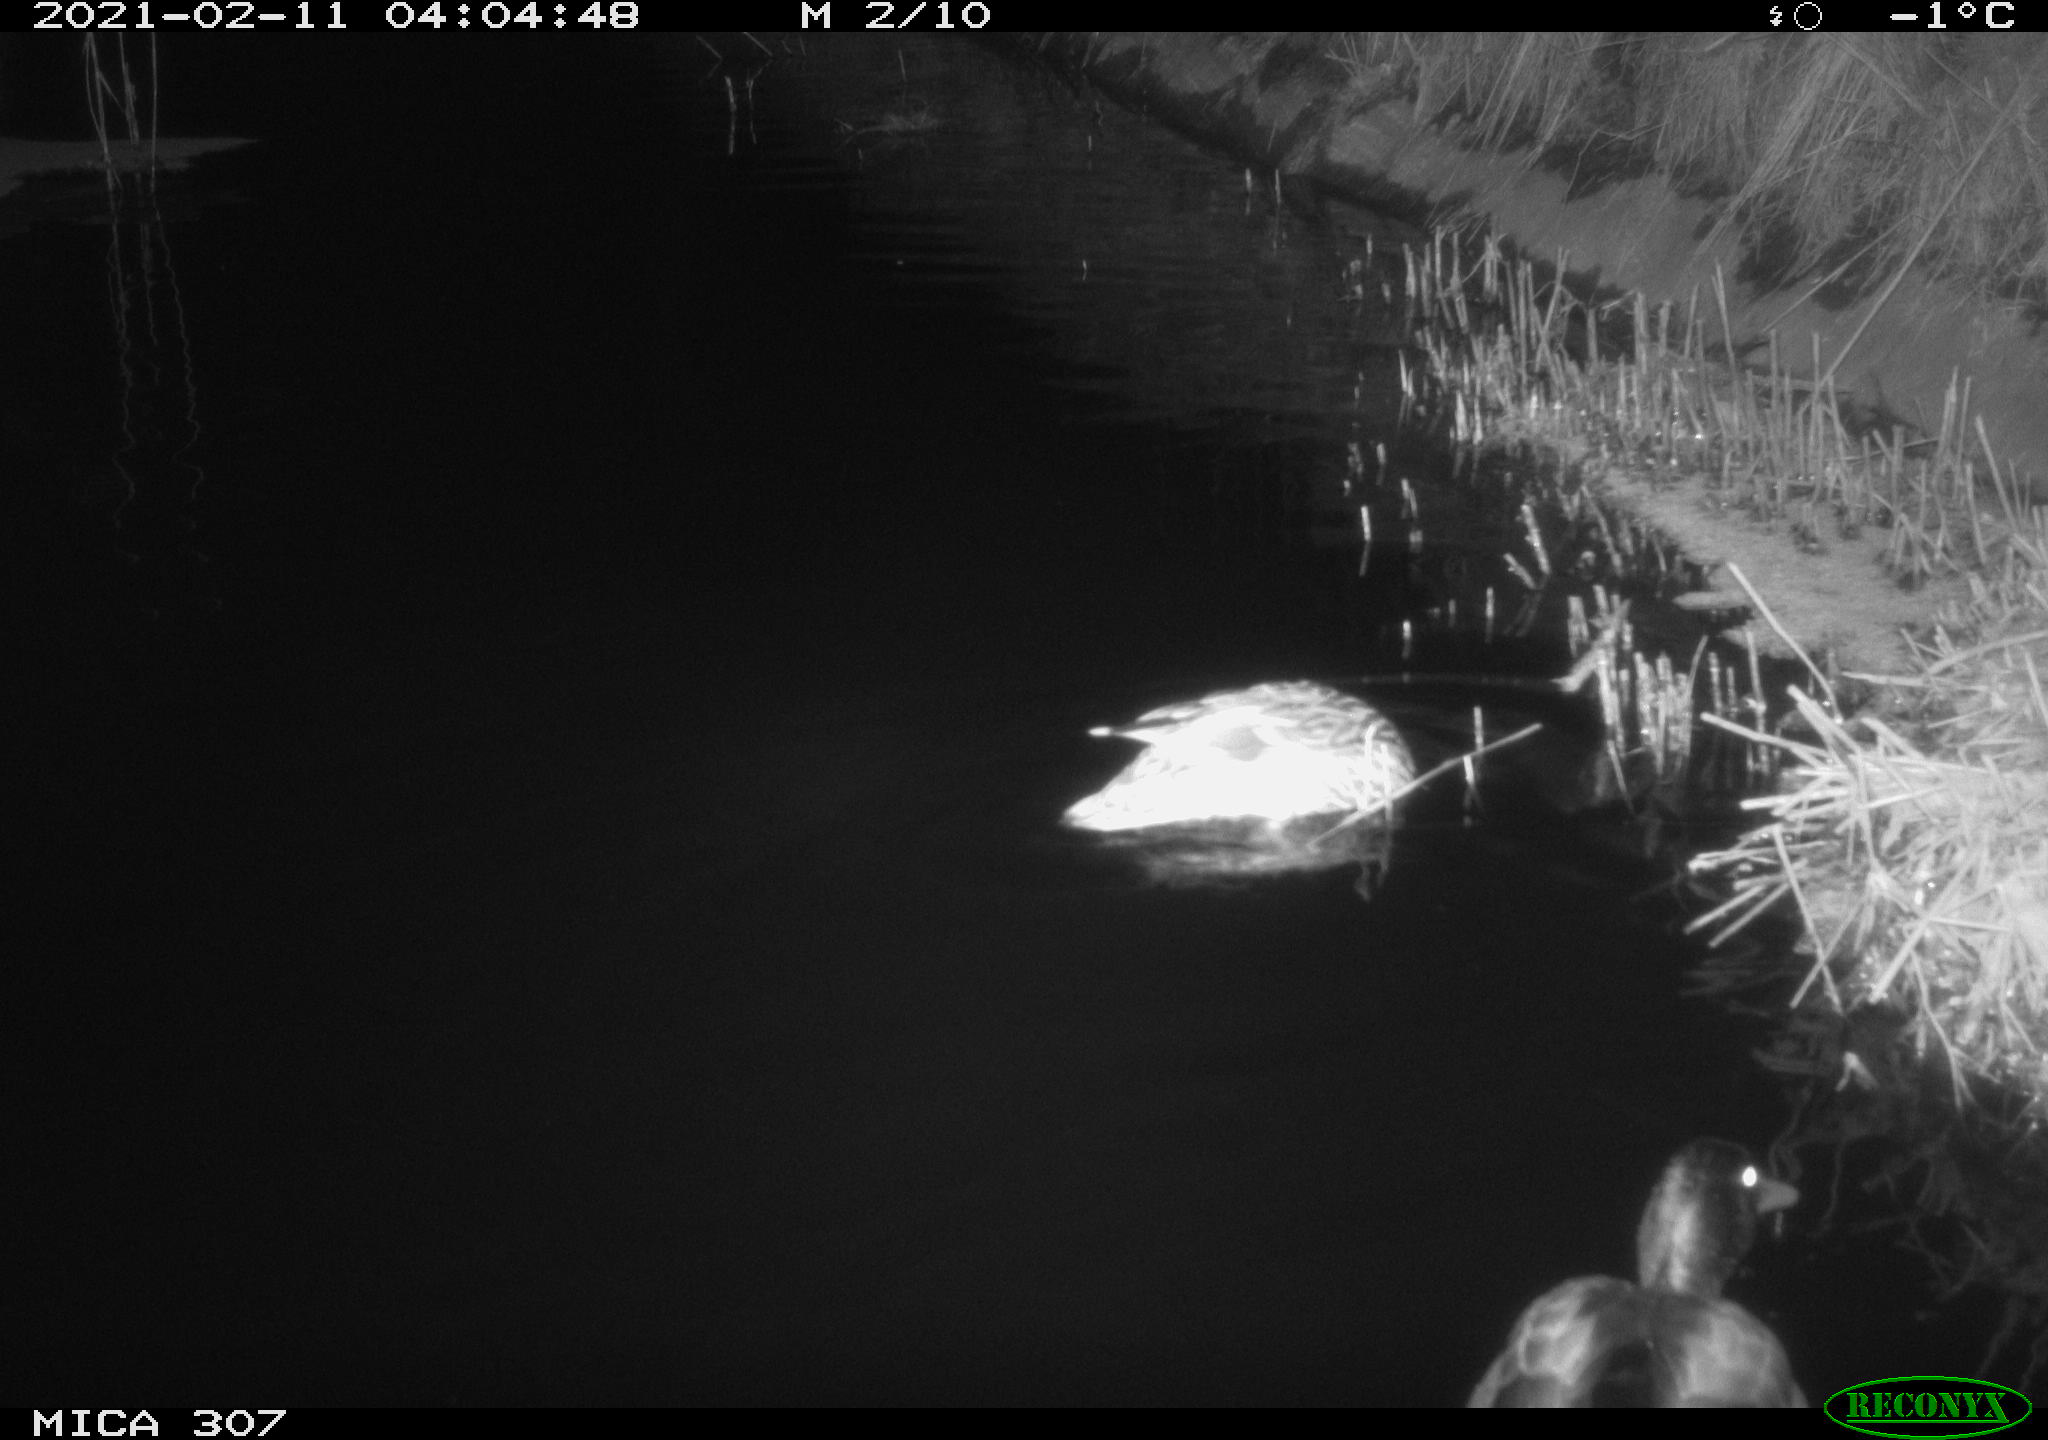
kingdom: Animalia
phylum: Chordata
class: Aves
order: Anseriformes
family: Anatidae
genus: Anas
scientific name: Anas platyrhynchos
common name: Mallard
